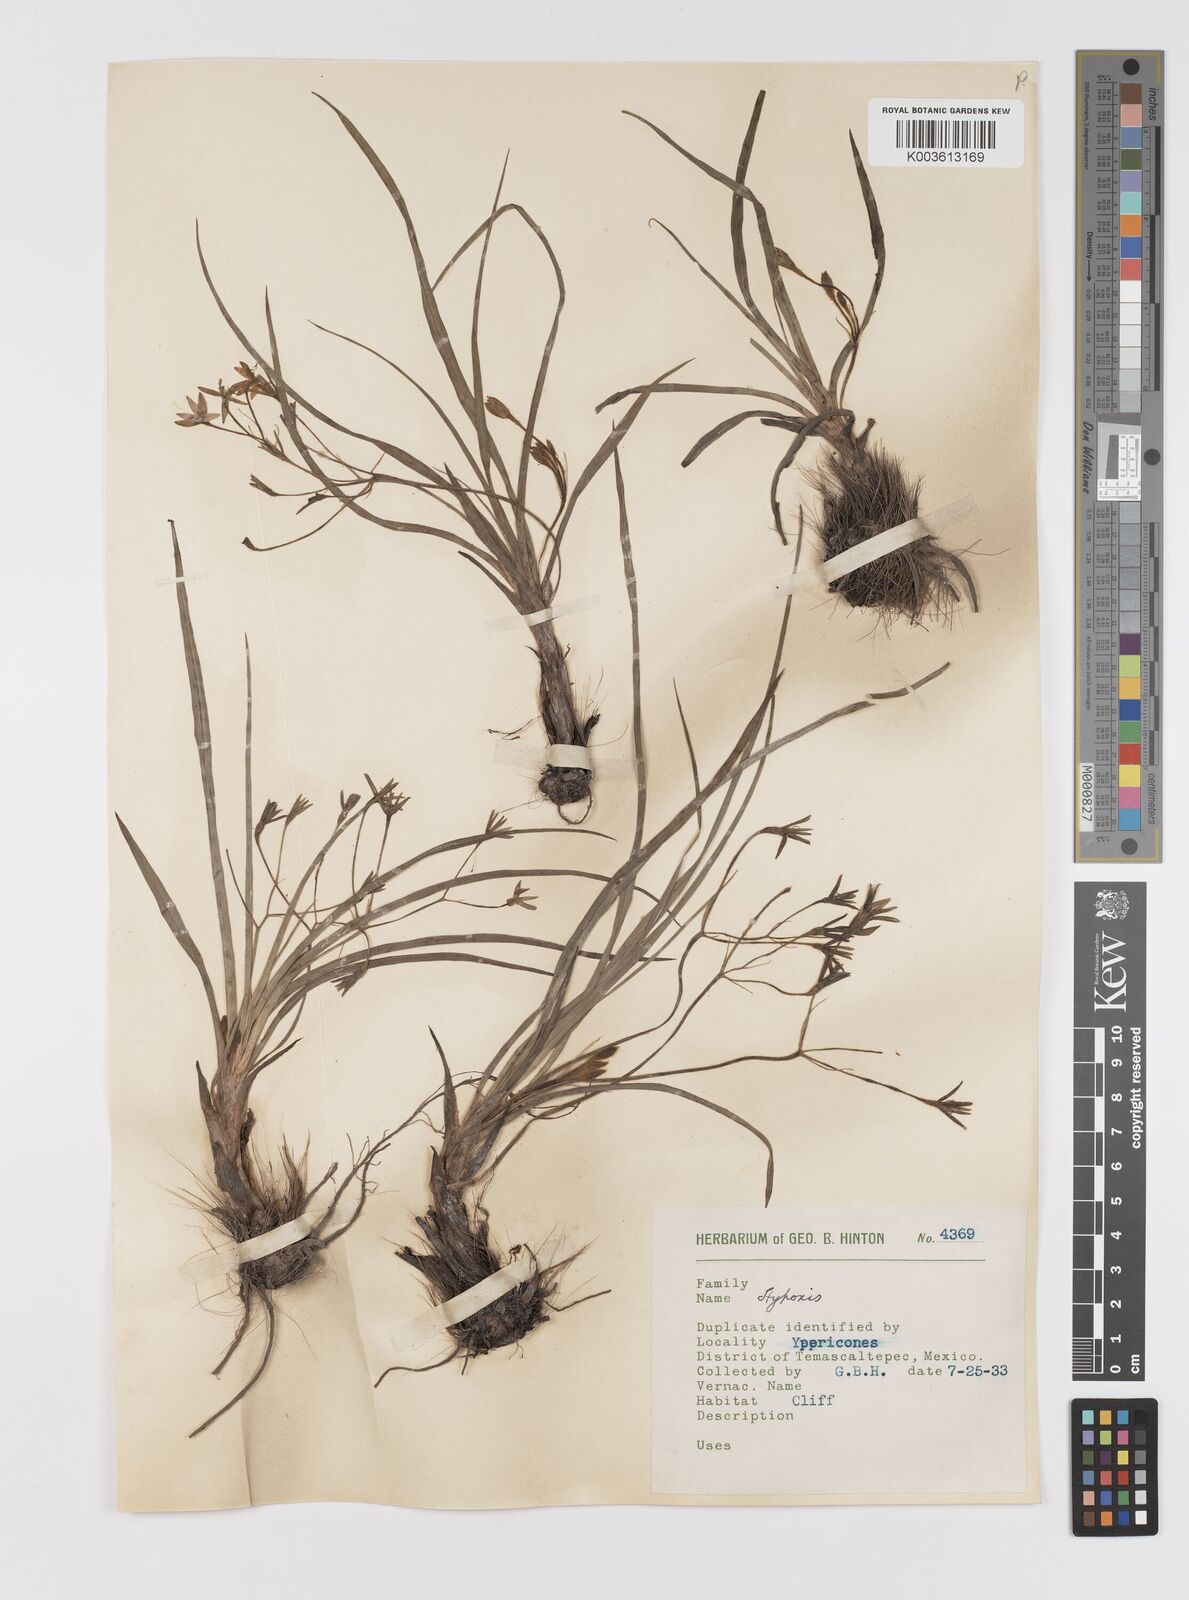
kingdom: Plantae
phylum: Tracheophyta
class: Liliopsida
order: Asparagales
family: Hypoxidaceae
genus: Hypoxis
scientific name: Hypoxis potosina
